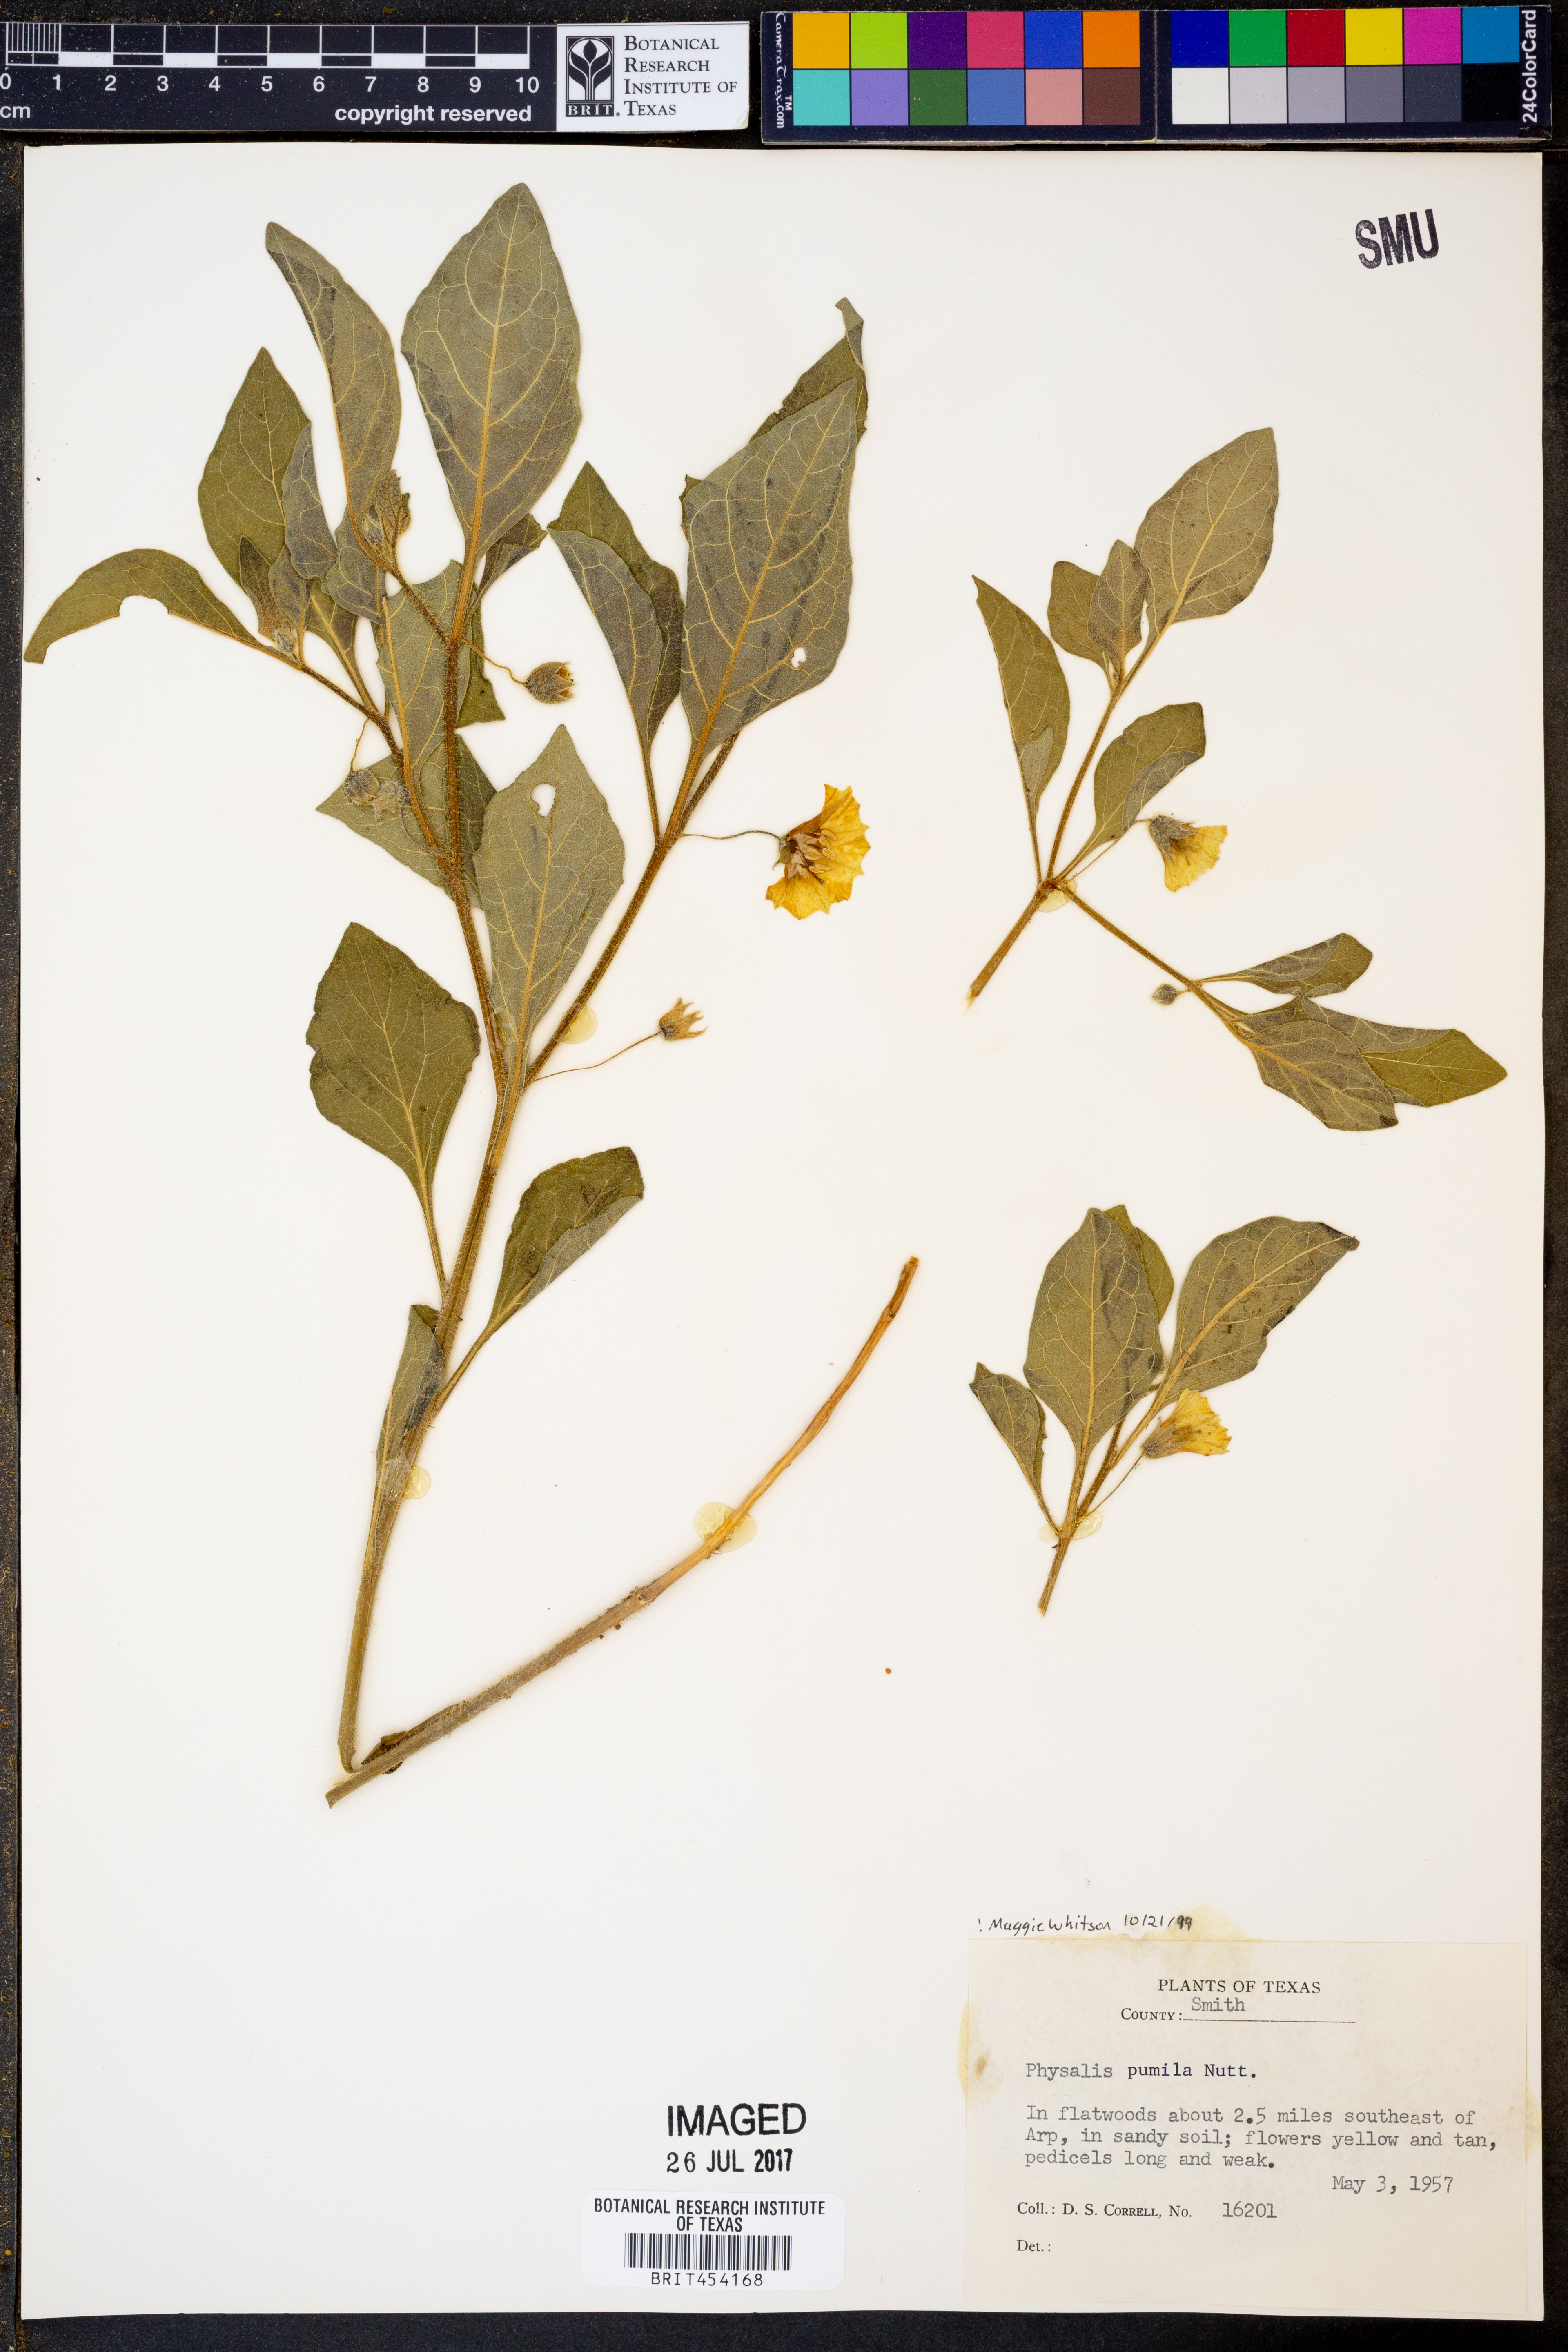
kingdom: Plantae
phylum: Tracheophyta
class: Magnoliopsida
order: Solanales
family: Solanaceae
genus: Physalis
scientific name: Physalis pumila
